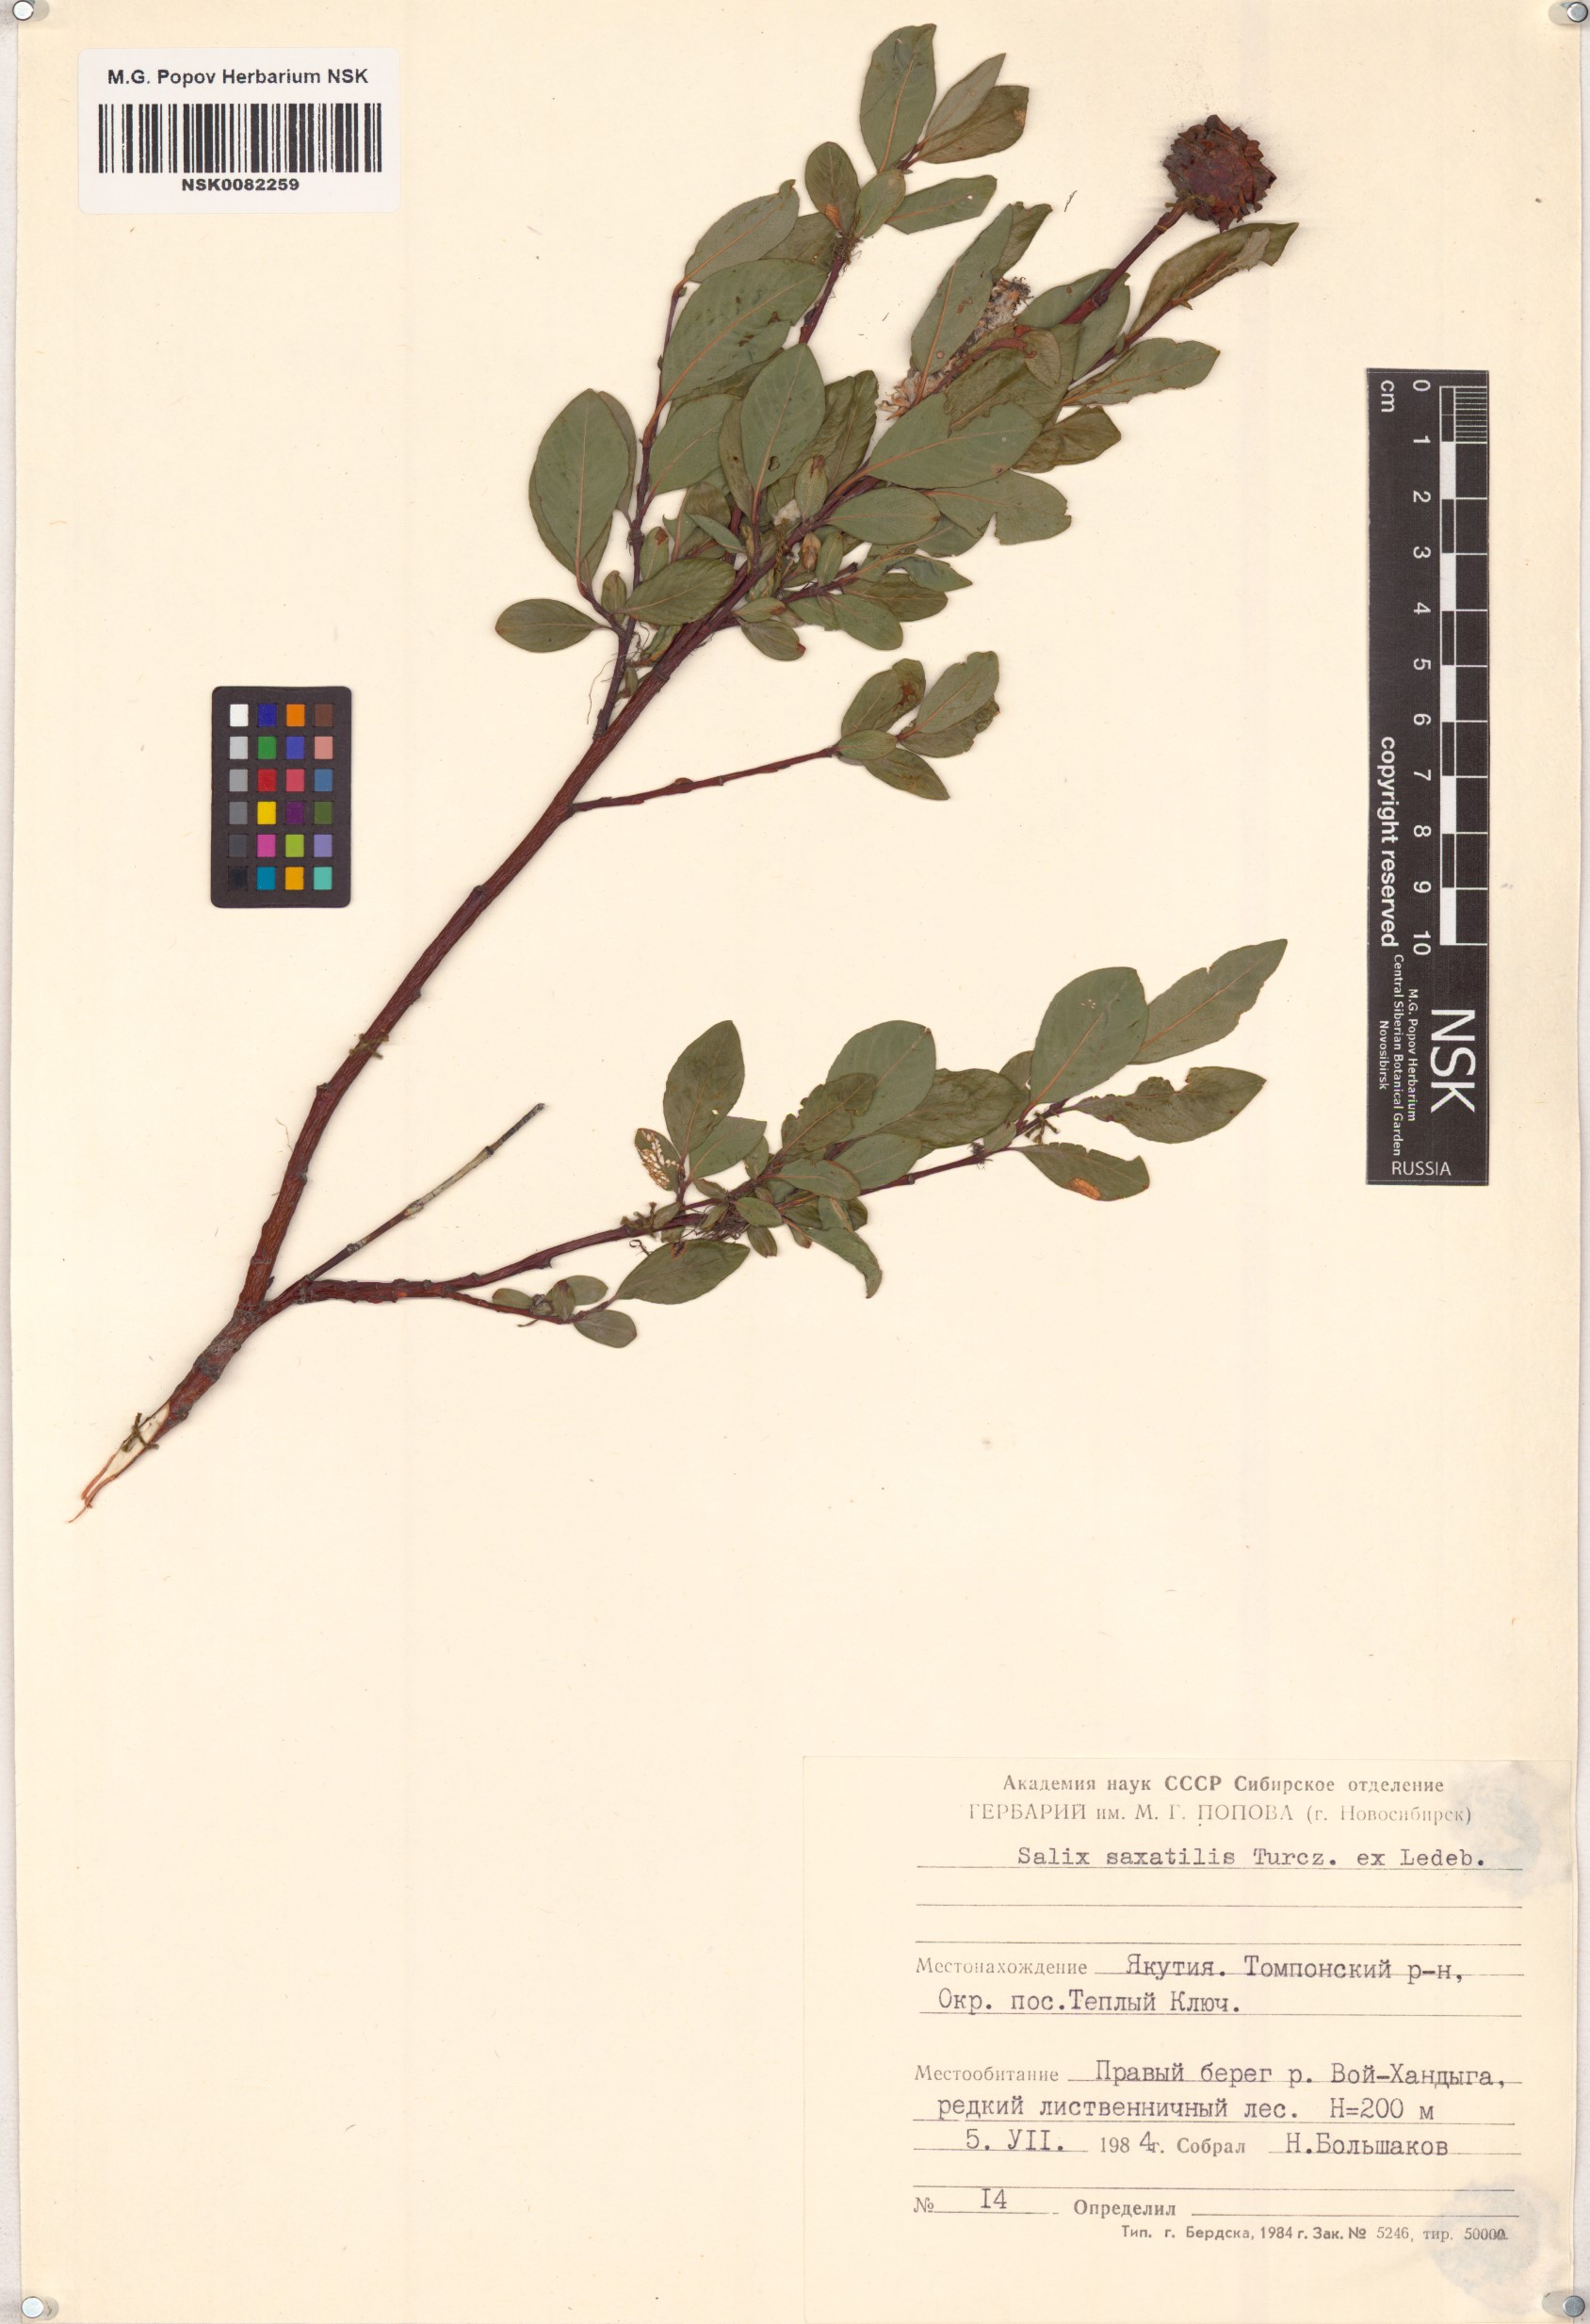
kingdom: Plantae
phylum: Tracheophyta
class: Magnoliopsida
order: Malpighiales
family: Salicaceae
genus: Salix
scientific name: Salix saxatilis
